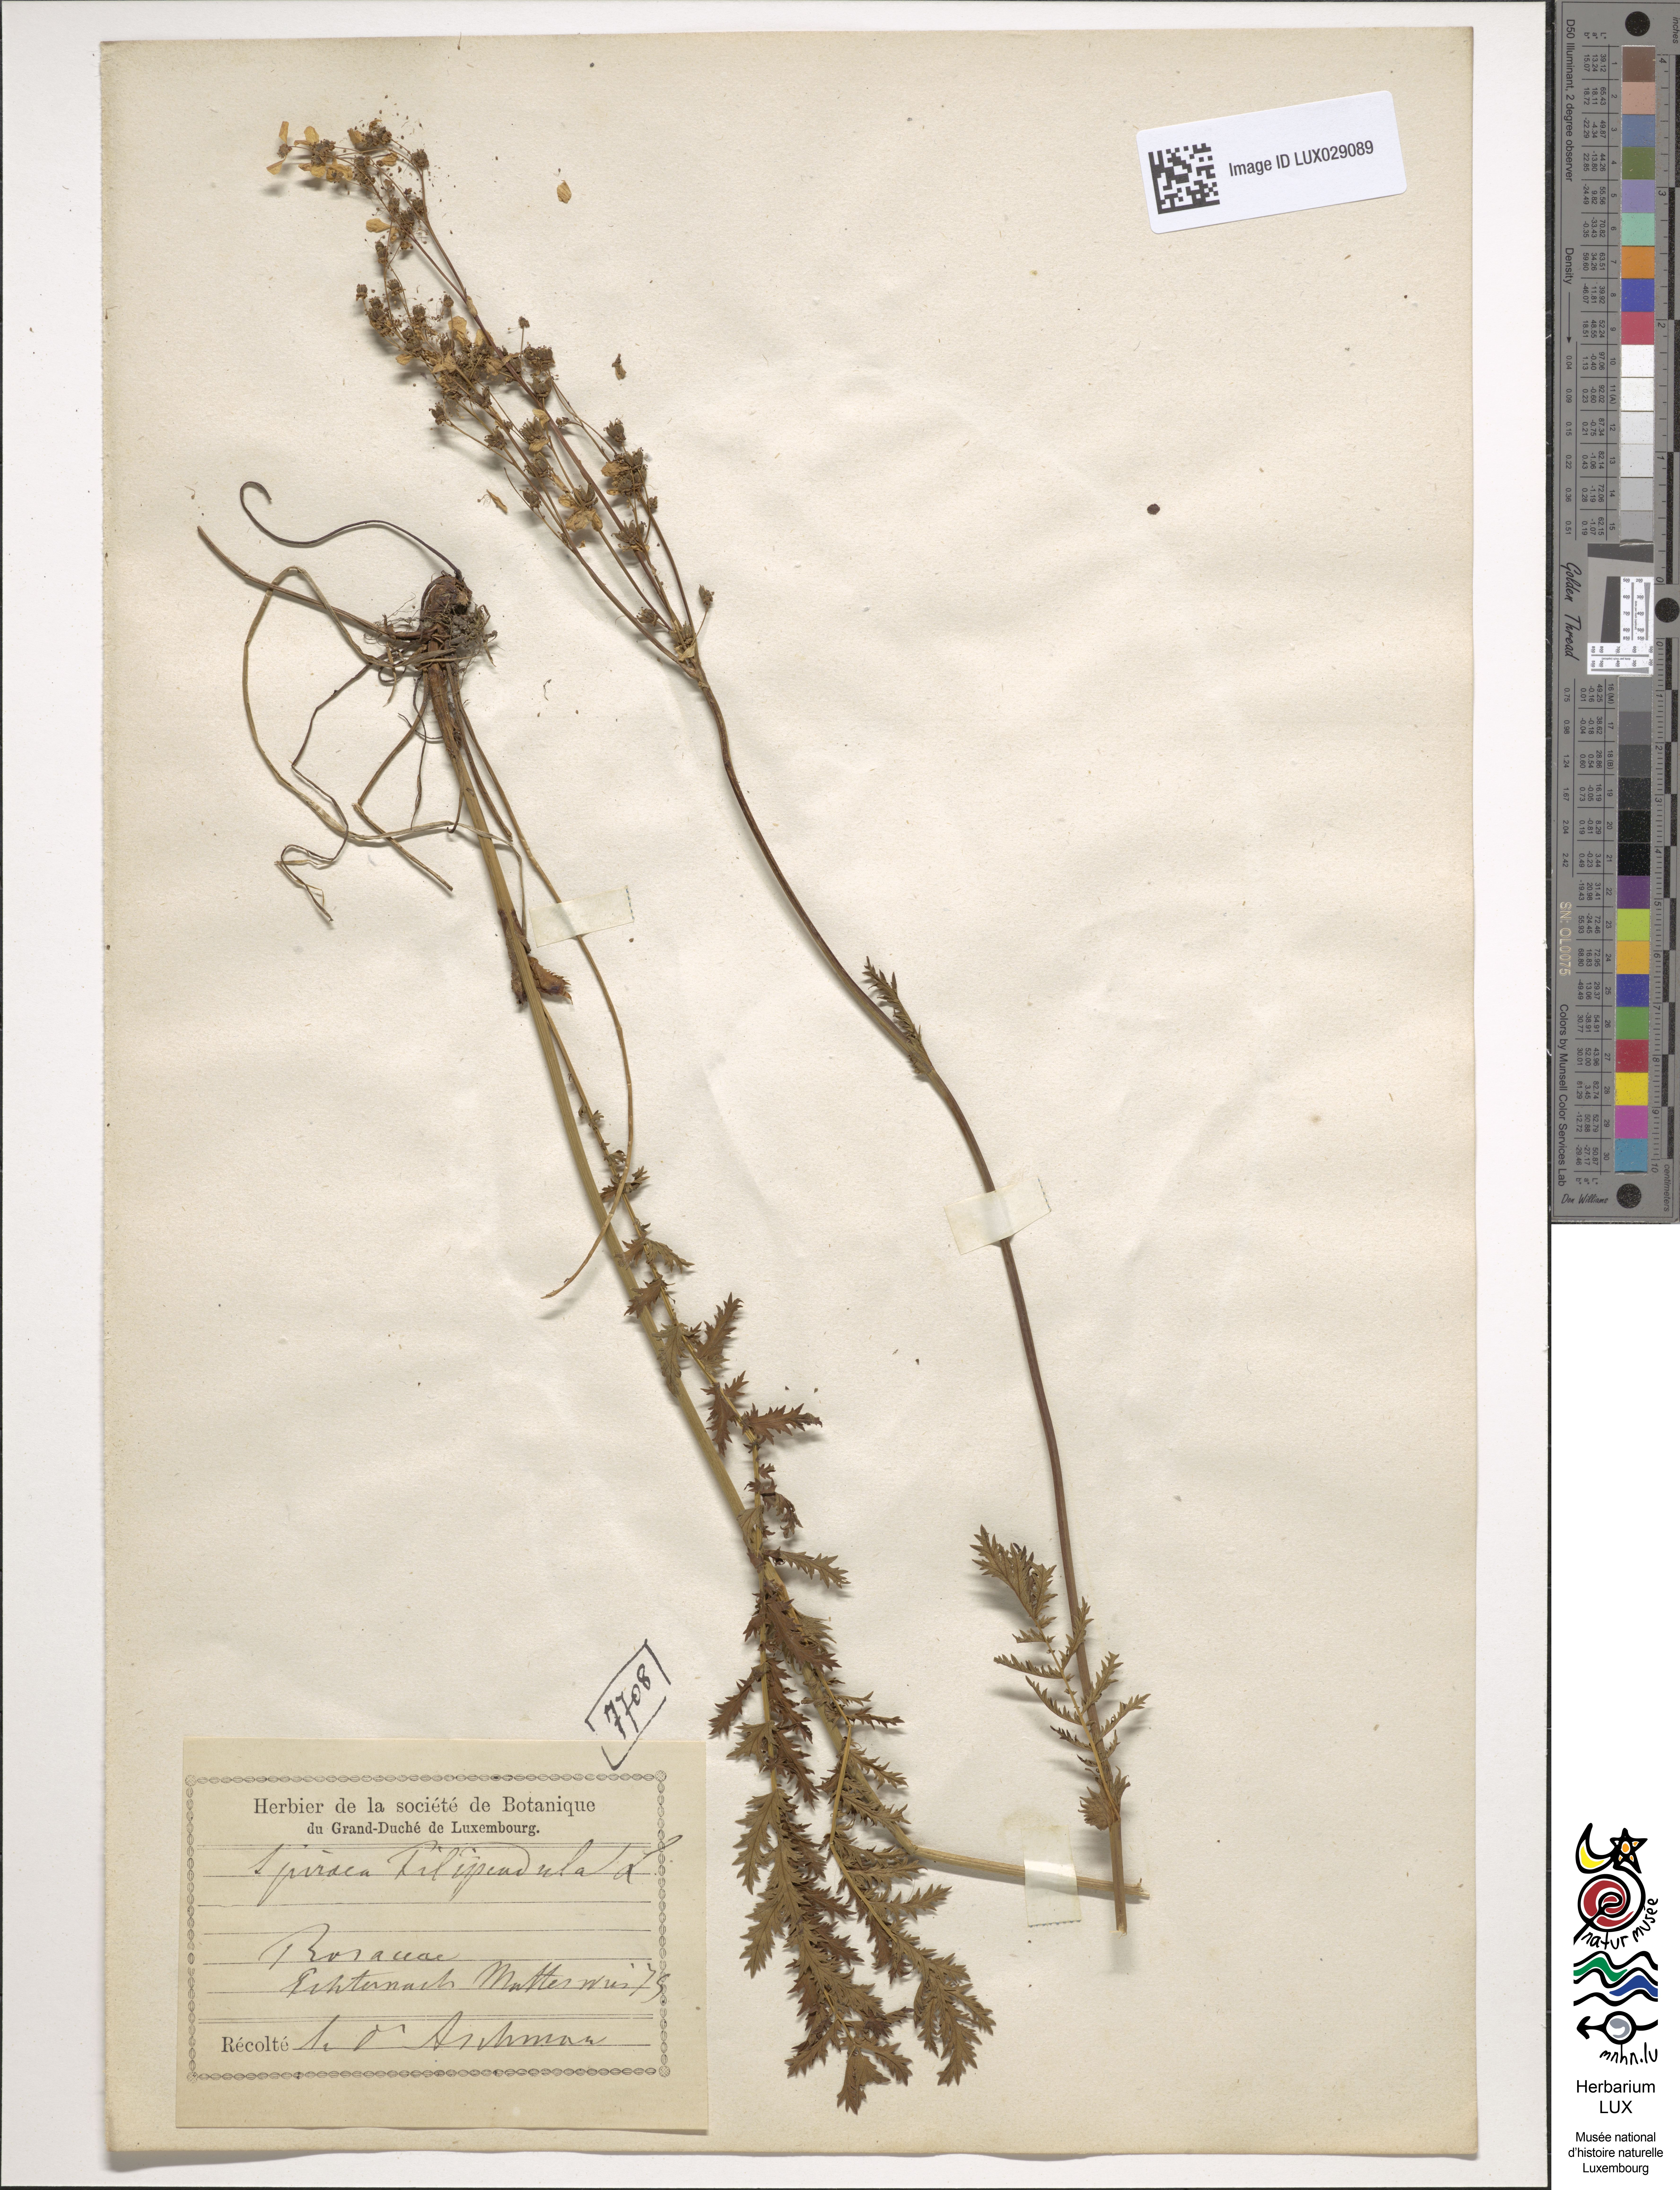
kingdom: Plantae
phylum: Tracheophyta
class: Magnoliopsida
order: Rosales
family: Rosaceae
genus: Filipendula
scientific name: Filipendula vulgaris
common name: Dropwort
